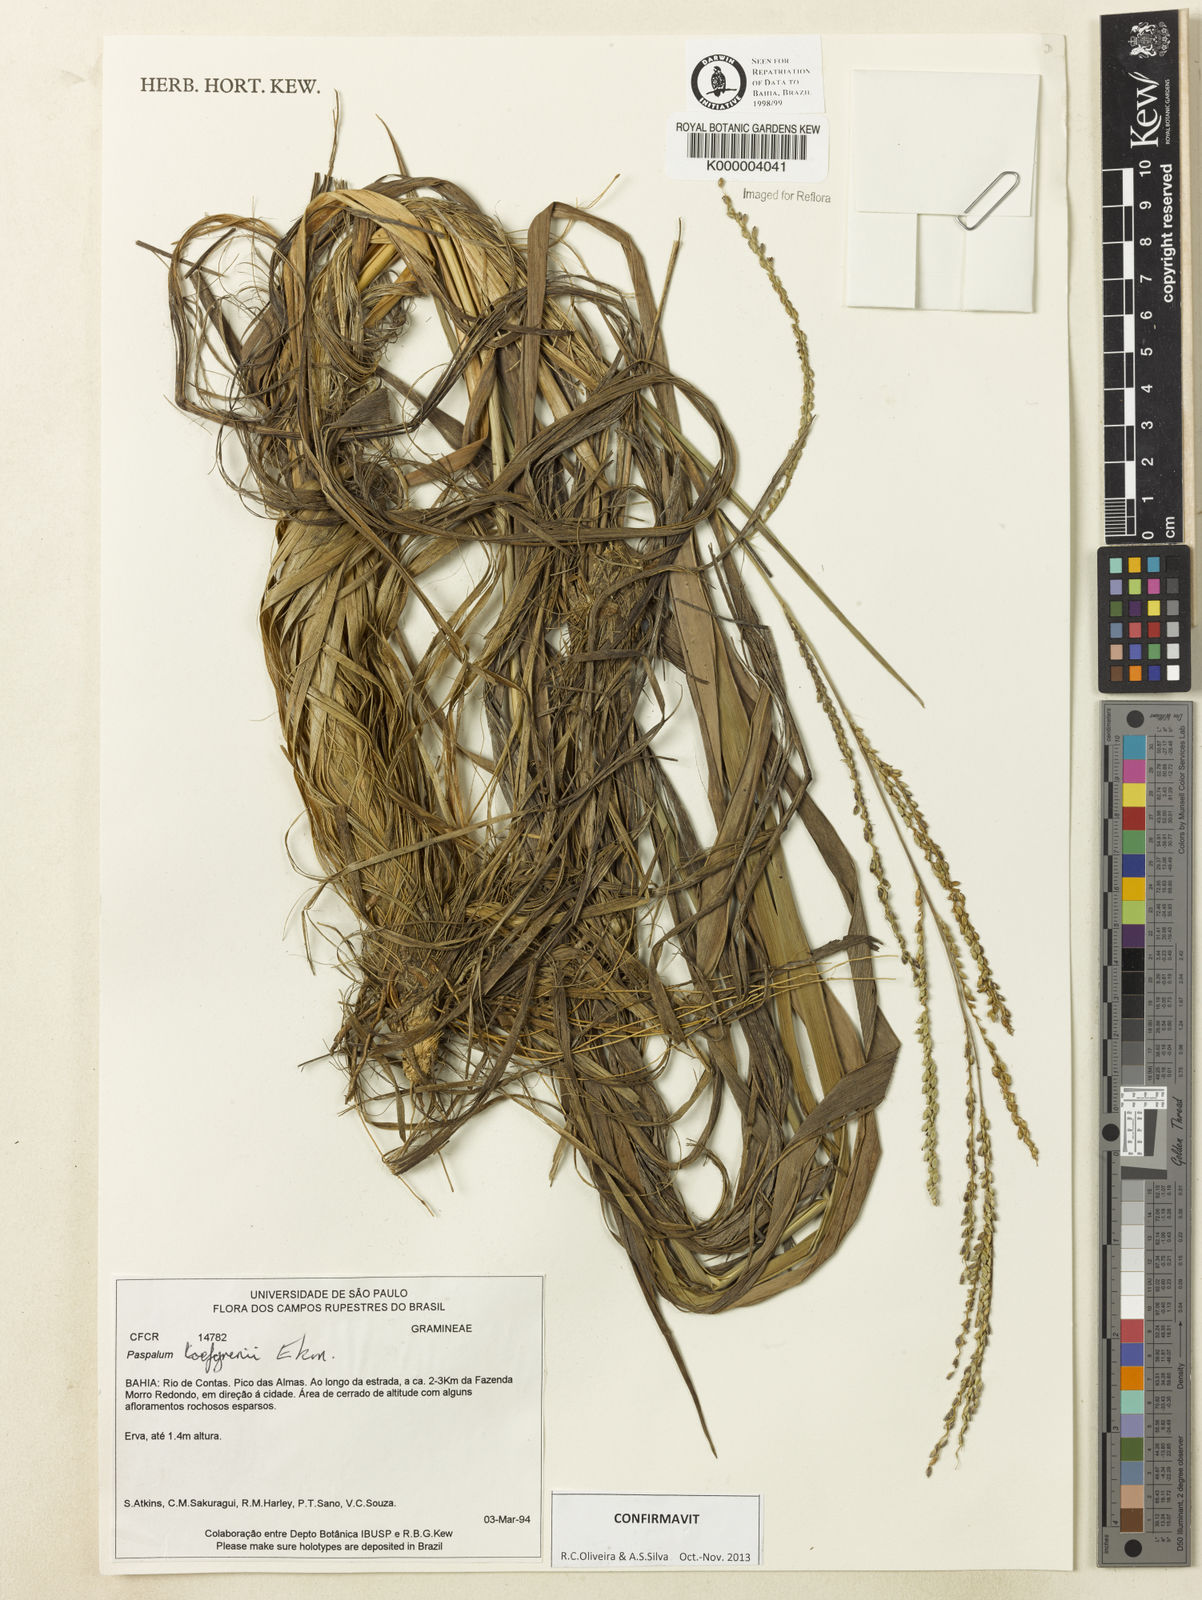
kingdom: Plantae
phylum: Tracheophyta
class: Liliopsida
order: Poales
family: Poaceae
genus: Paspalum
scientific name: Paspalum loefgrenii
